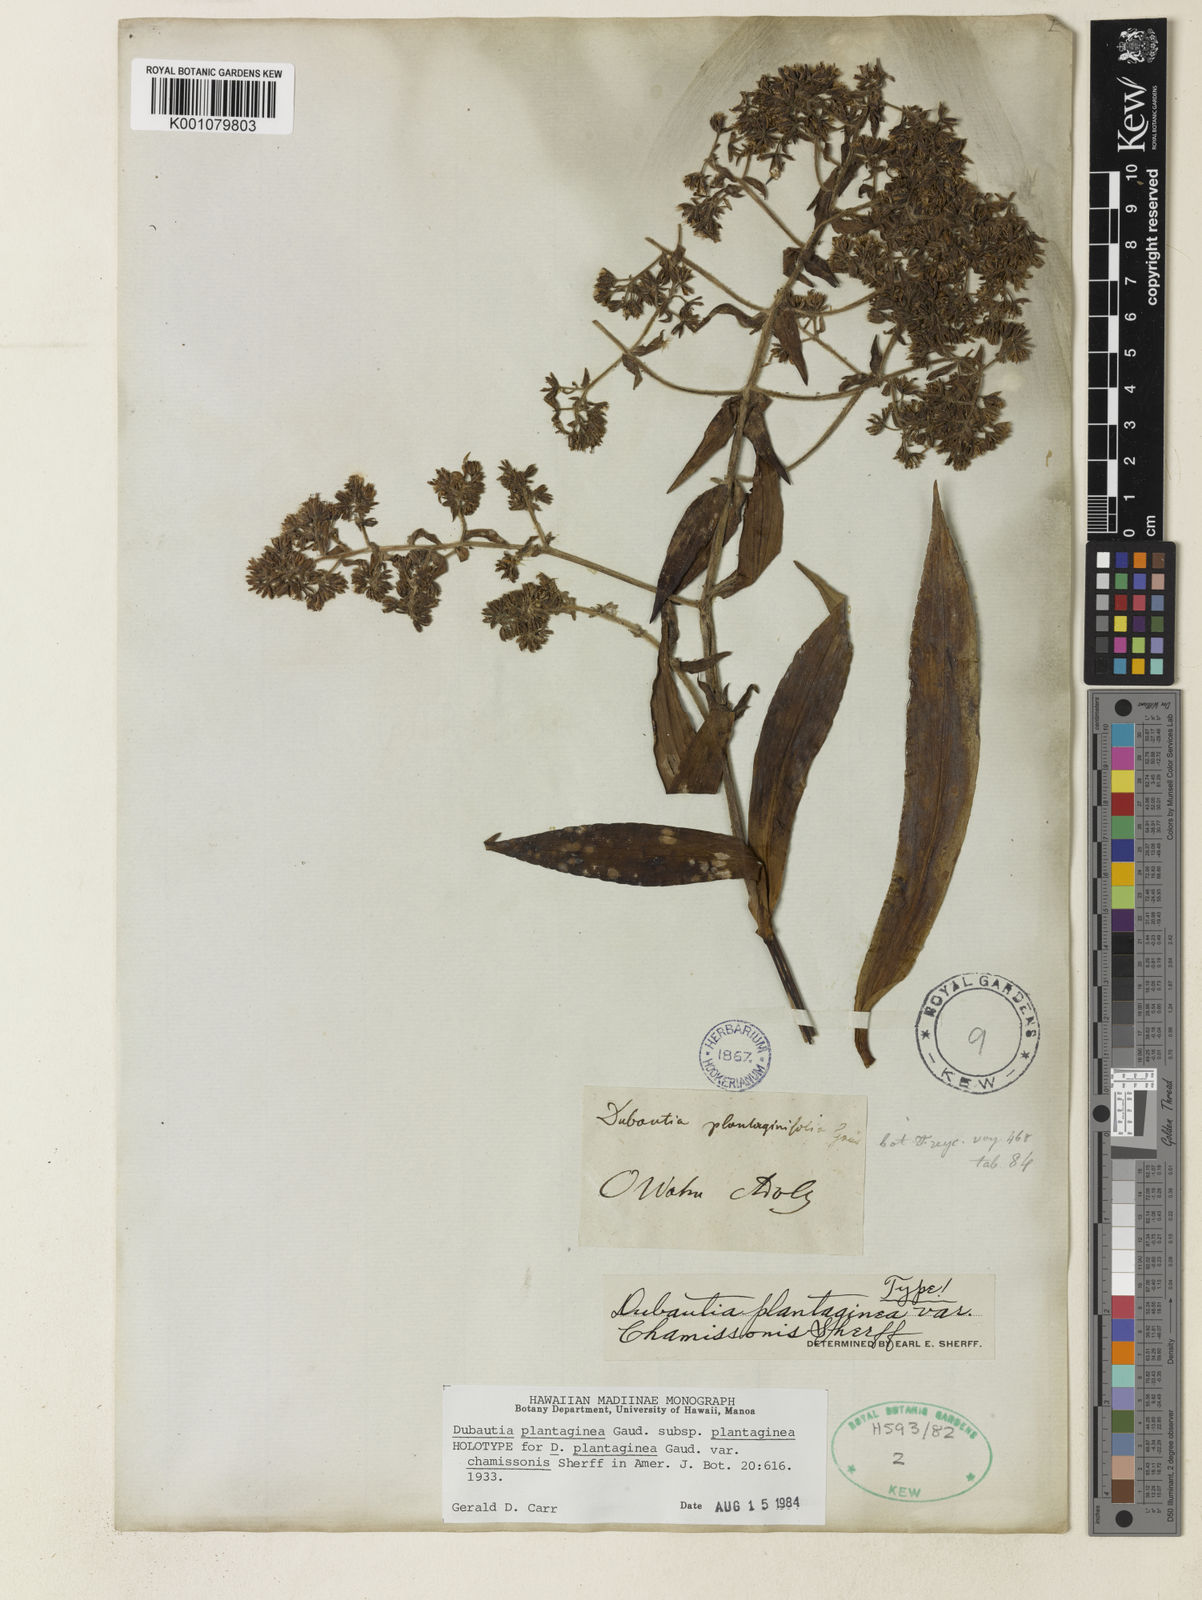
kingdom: Plantae
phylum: Tracheophyta
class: Magnoliopsida
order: Asterales
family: Asteraceae
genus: Dubautia
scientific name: Dubautia plantaginea
